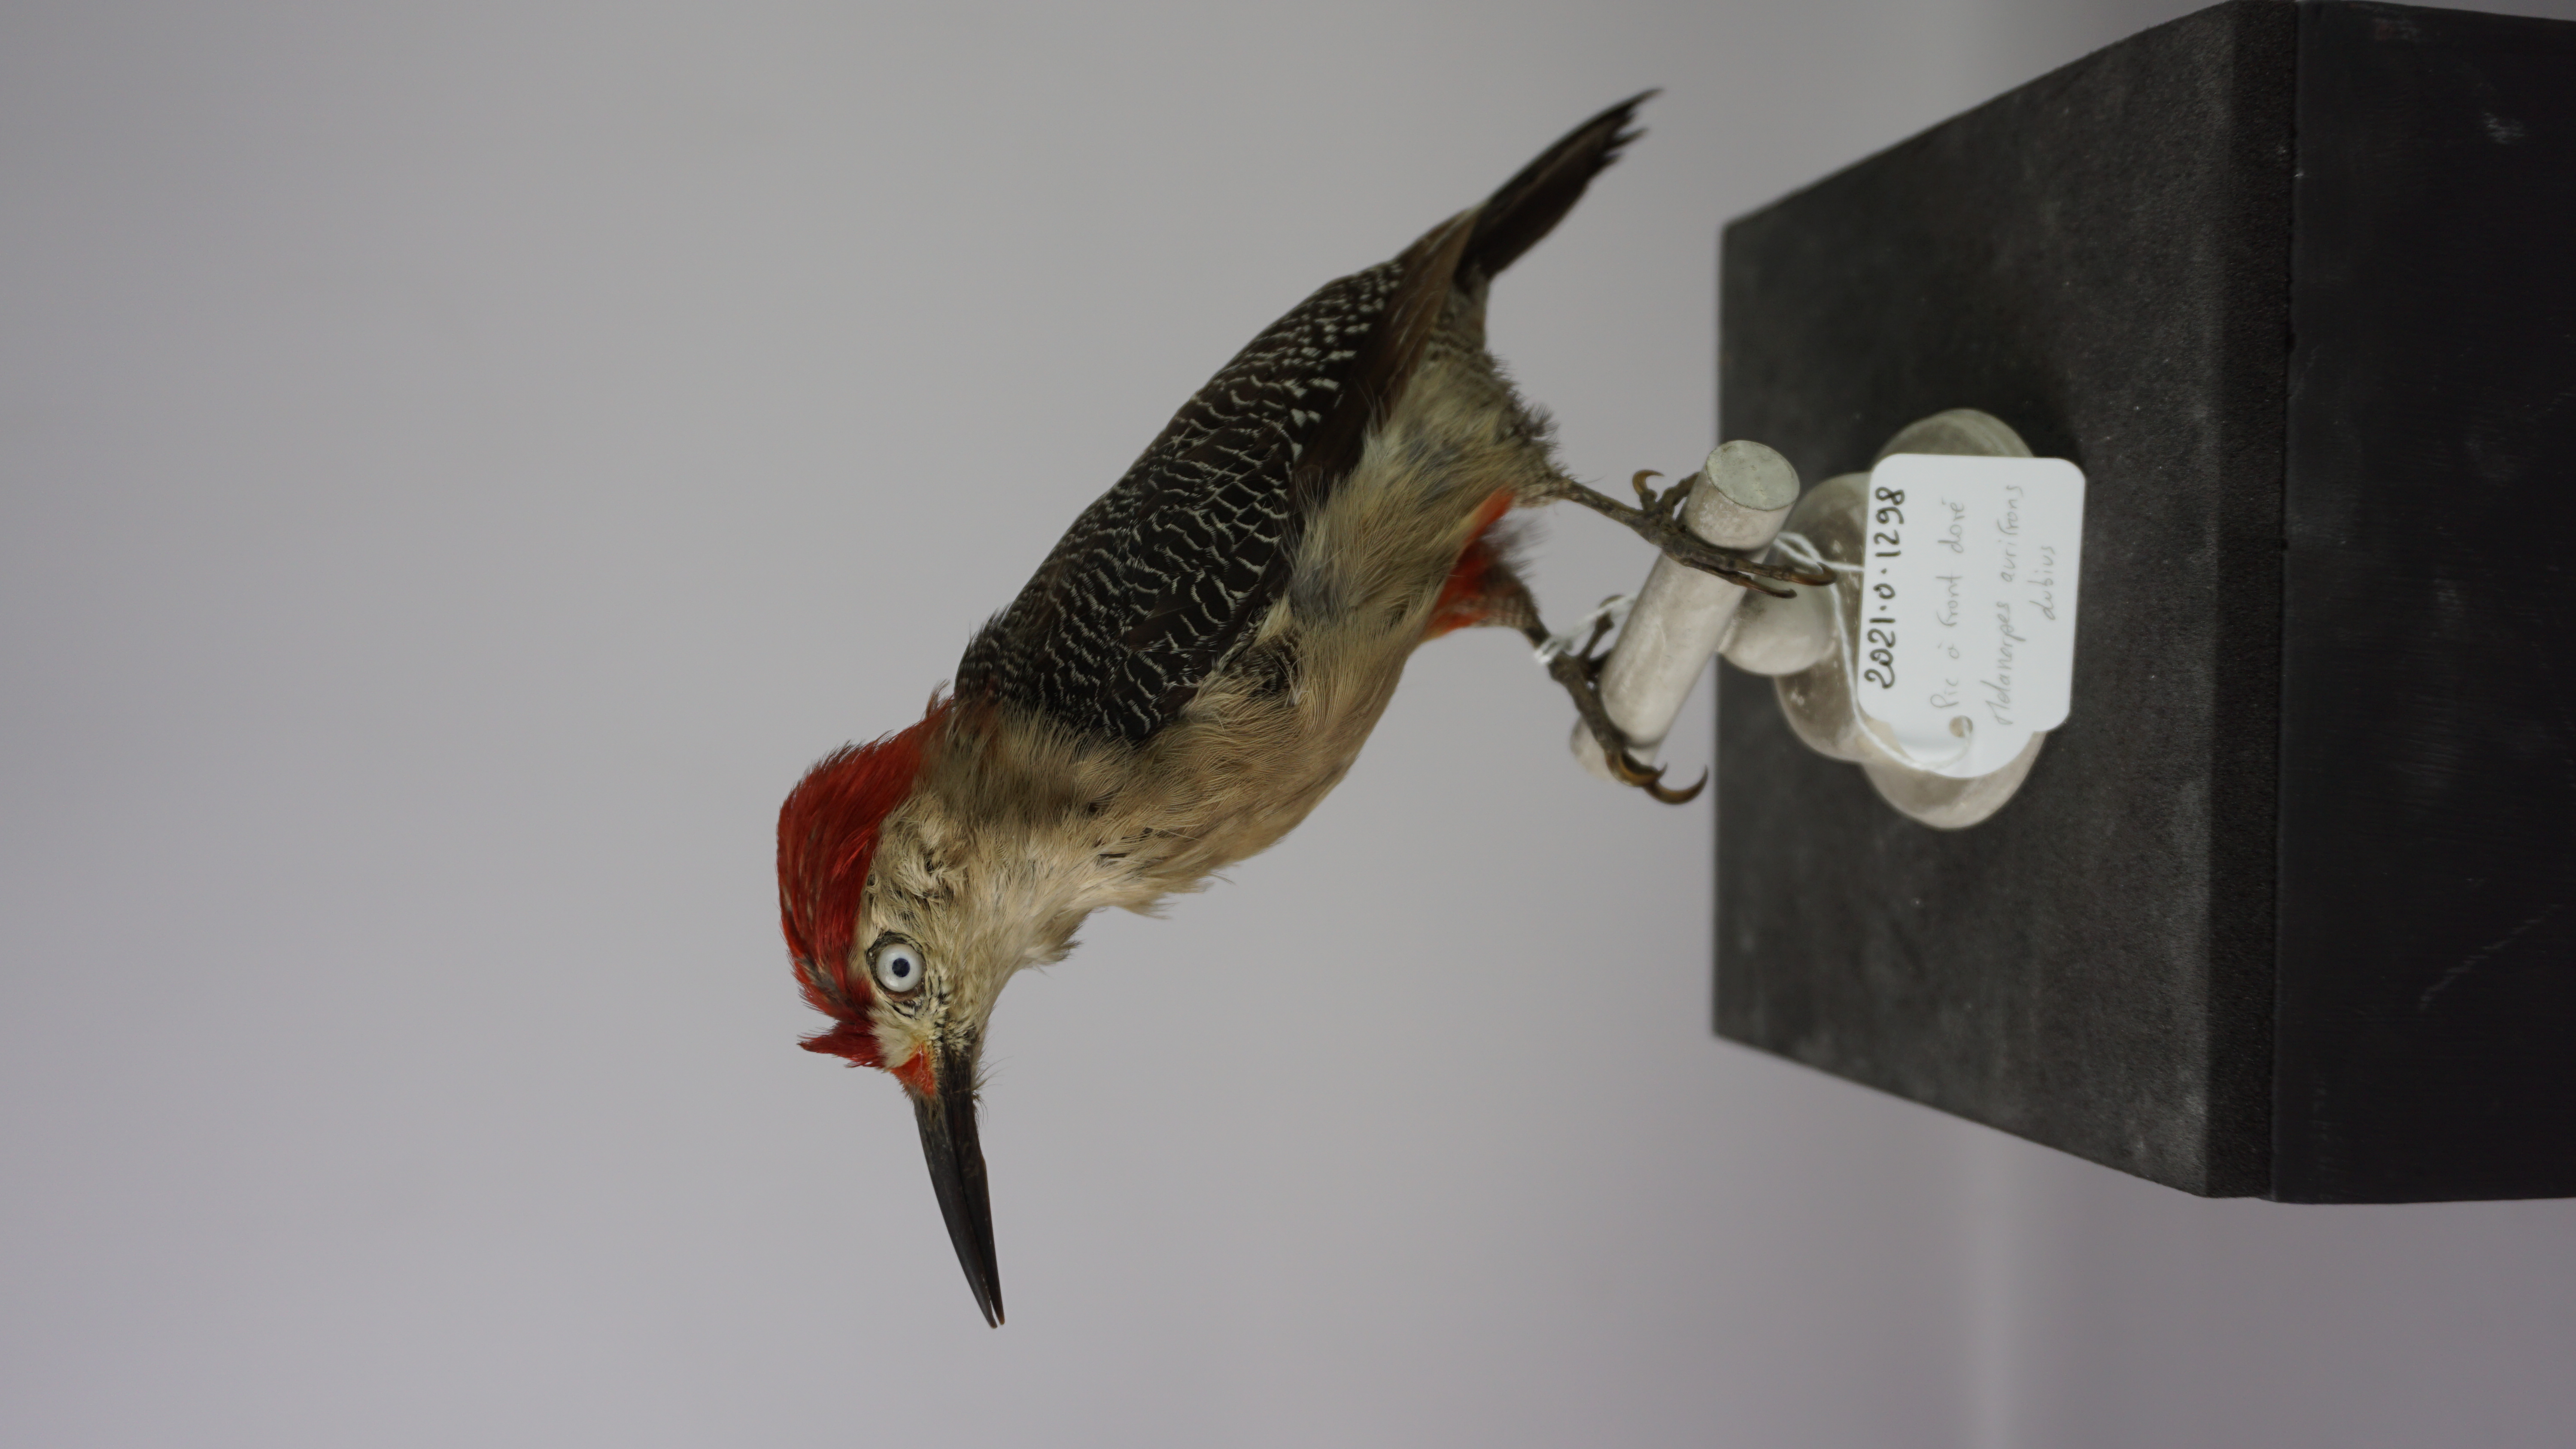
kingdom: Animalia
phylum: Chordata
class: Aves
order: Piciformes
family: Picidae
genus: Melanerpes
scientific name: Melanerpes santacruzi
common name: Velasquez's woodpecker
